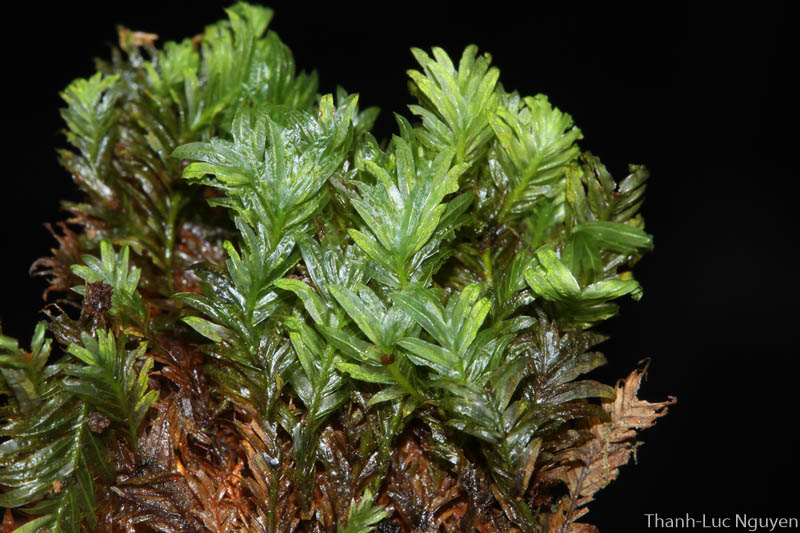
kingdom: Plantae
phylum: Bryophyta
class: Bryopsida
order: Dicranales
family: Fissidentaceae
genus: Fissidens
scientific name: Fissidens
